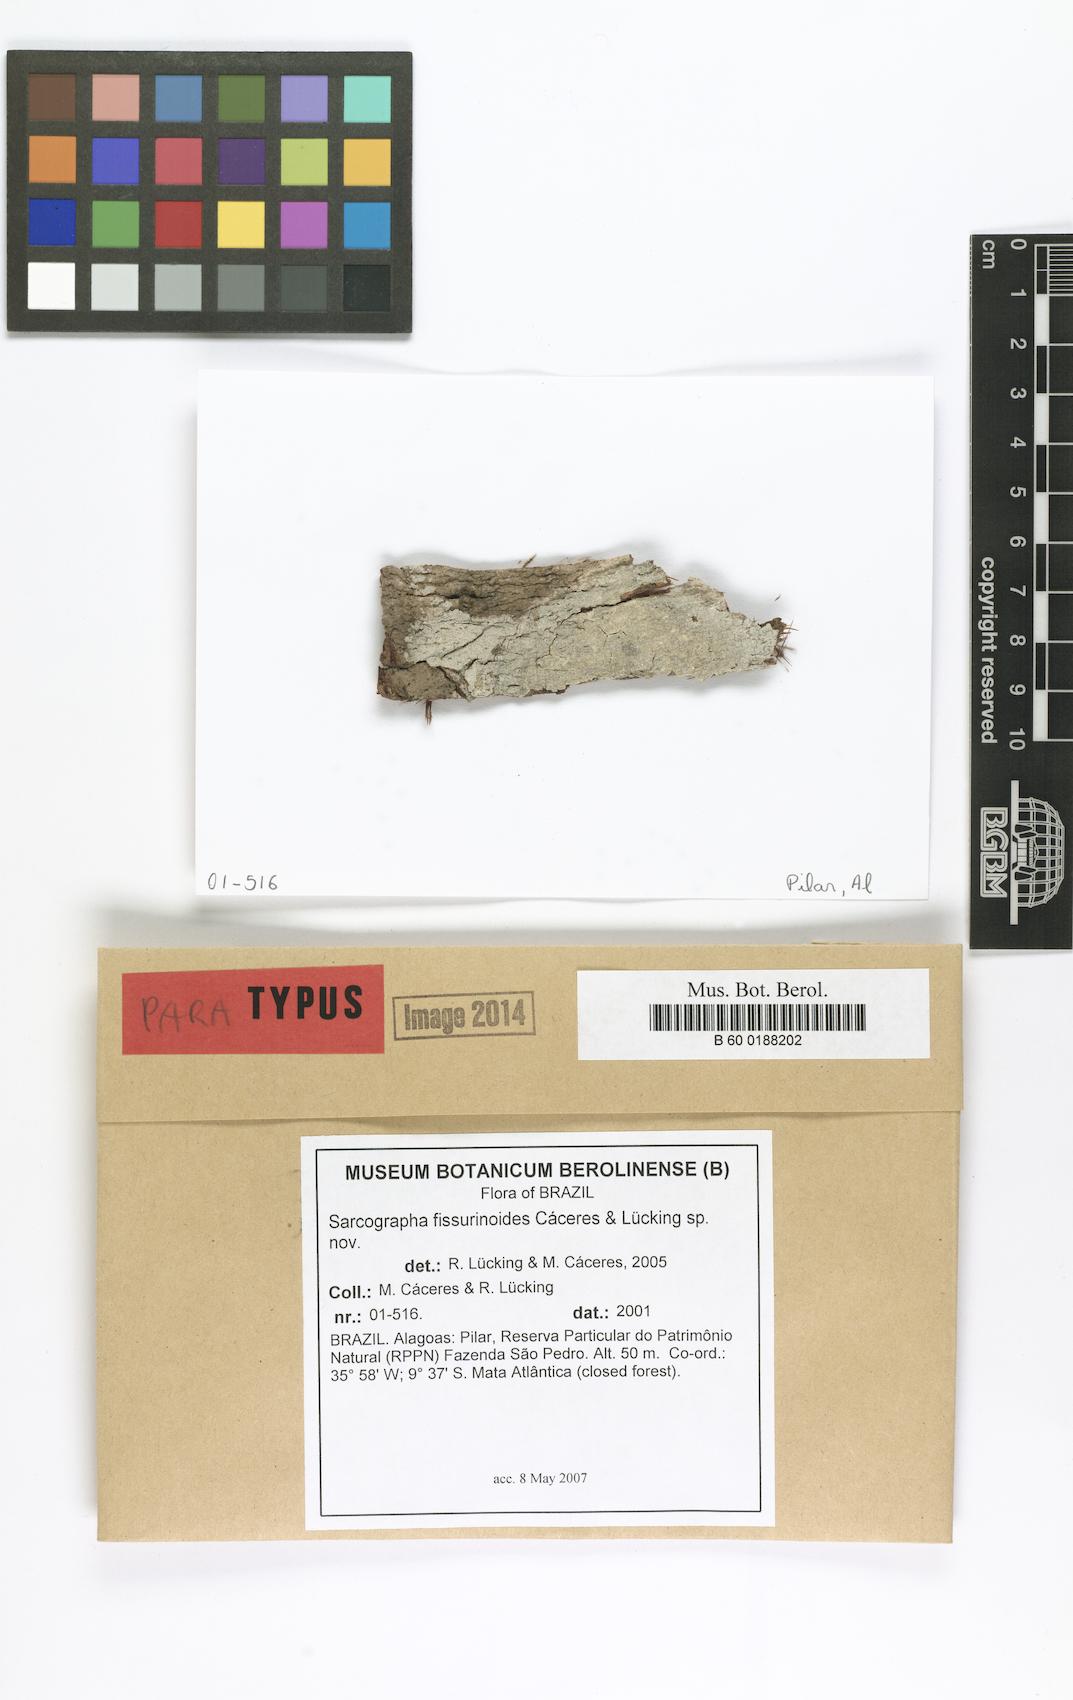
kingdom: Fungi
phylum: Ascomycota
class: Lecanoromycetes
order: Ostropales
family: Graphidaceae
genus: Sarcographa
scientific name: Sarcographa fissurinoides
